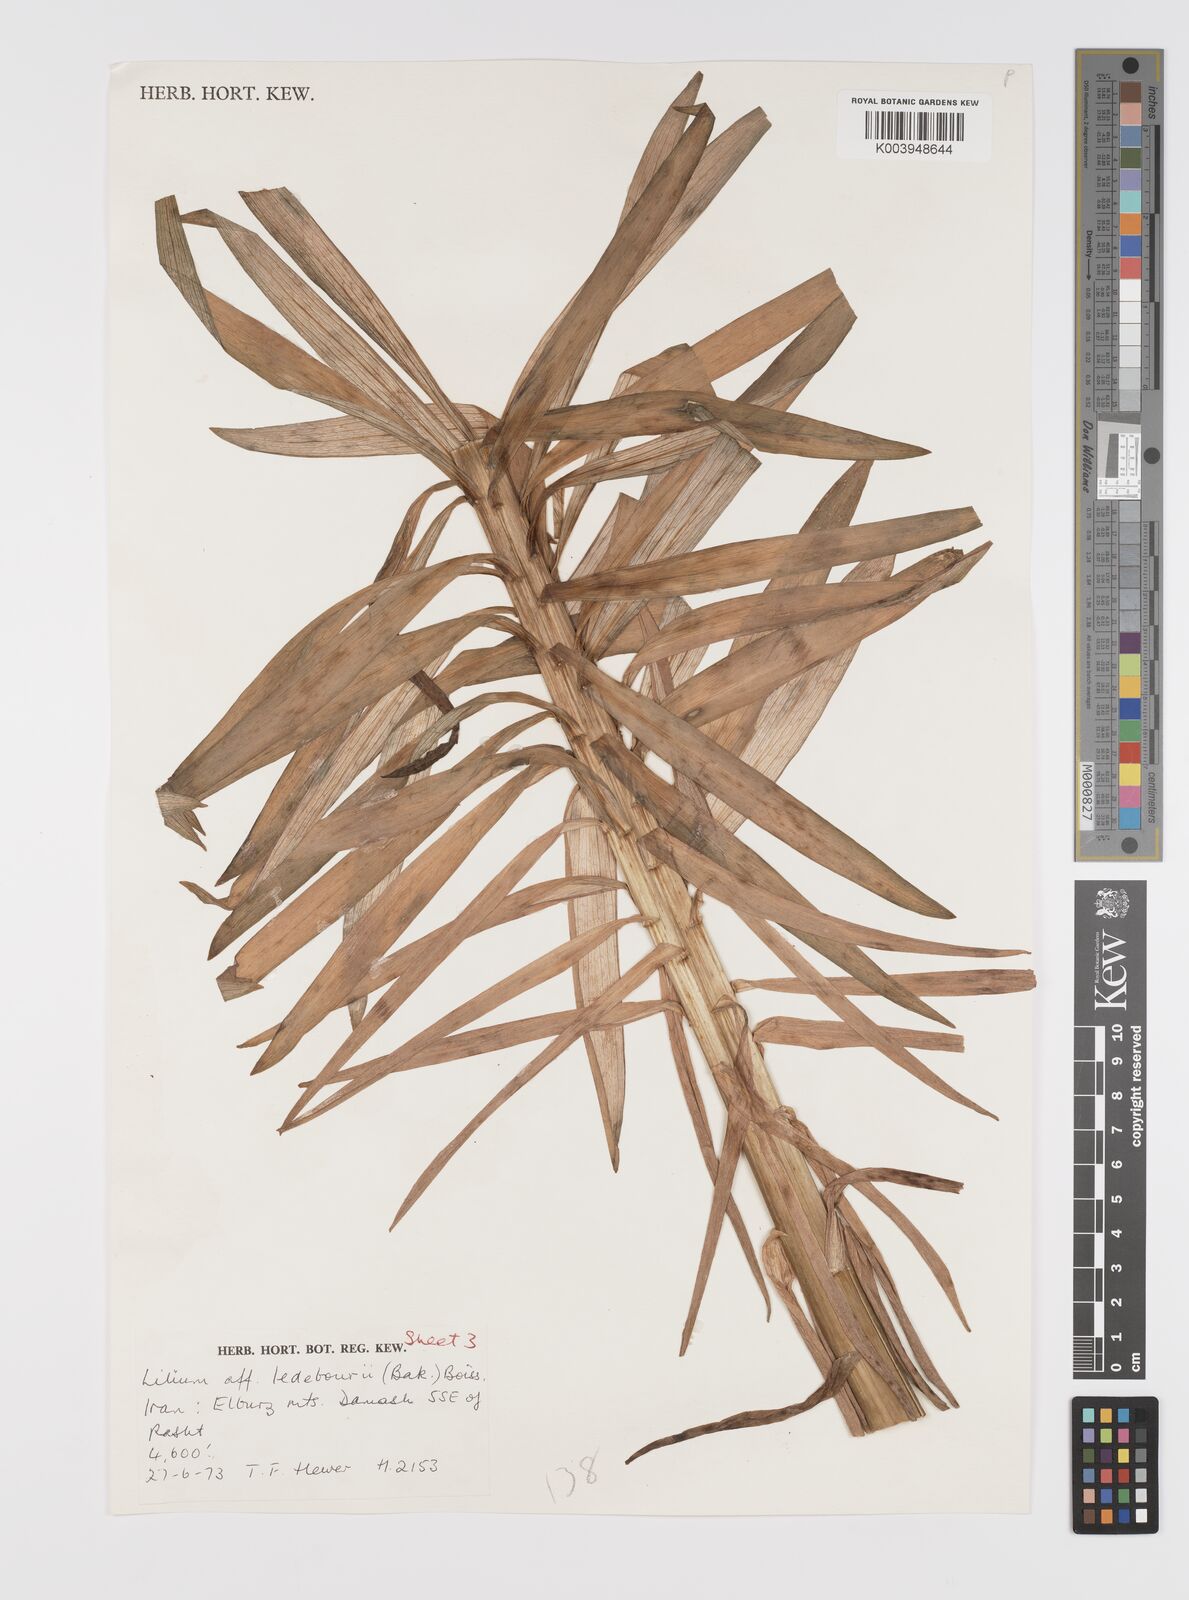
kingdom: Plantae
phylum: Tracheophyta
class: Liliopsida
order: Liliales
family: Liliaceae
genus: Lilium
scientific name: Lilium ledebourii
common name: Ledebour's lily
